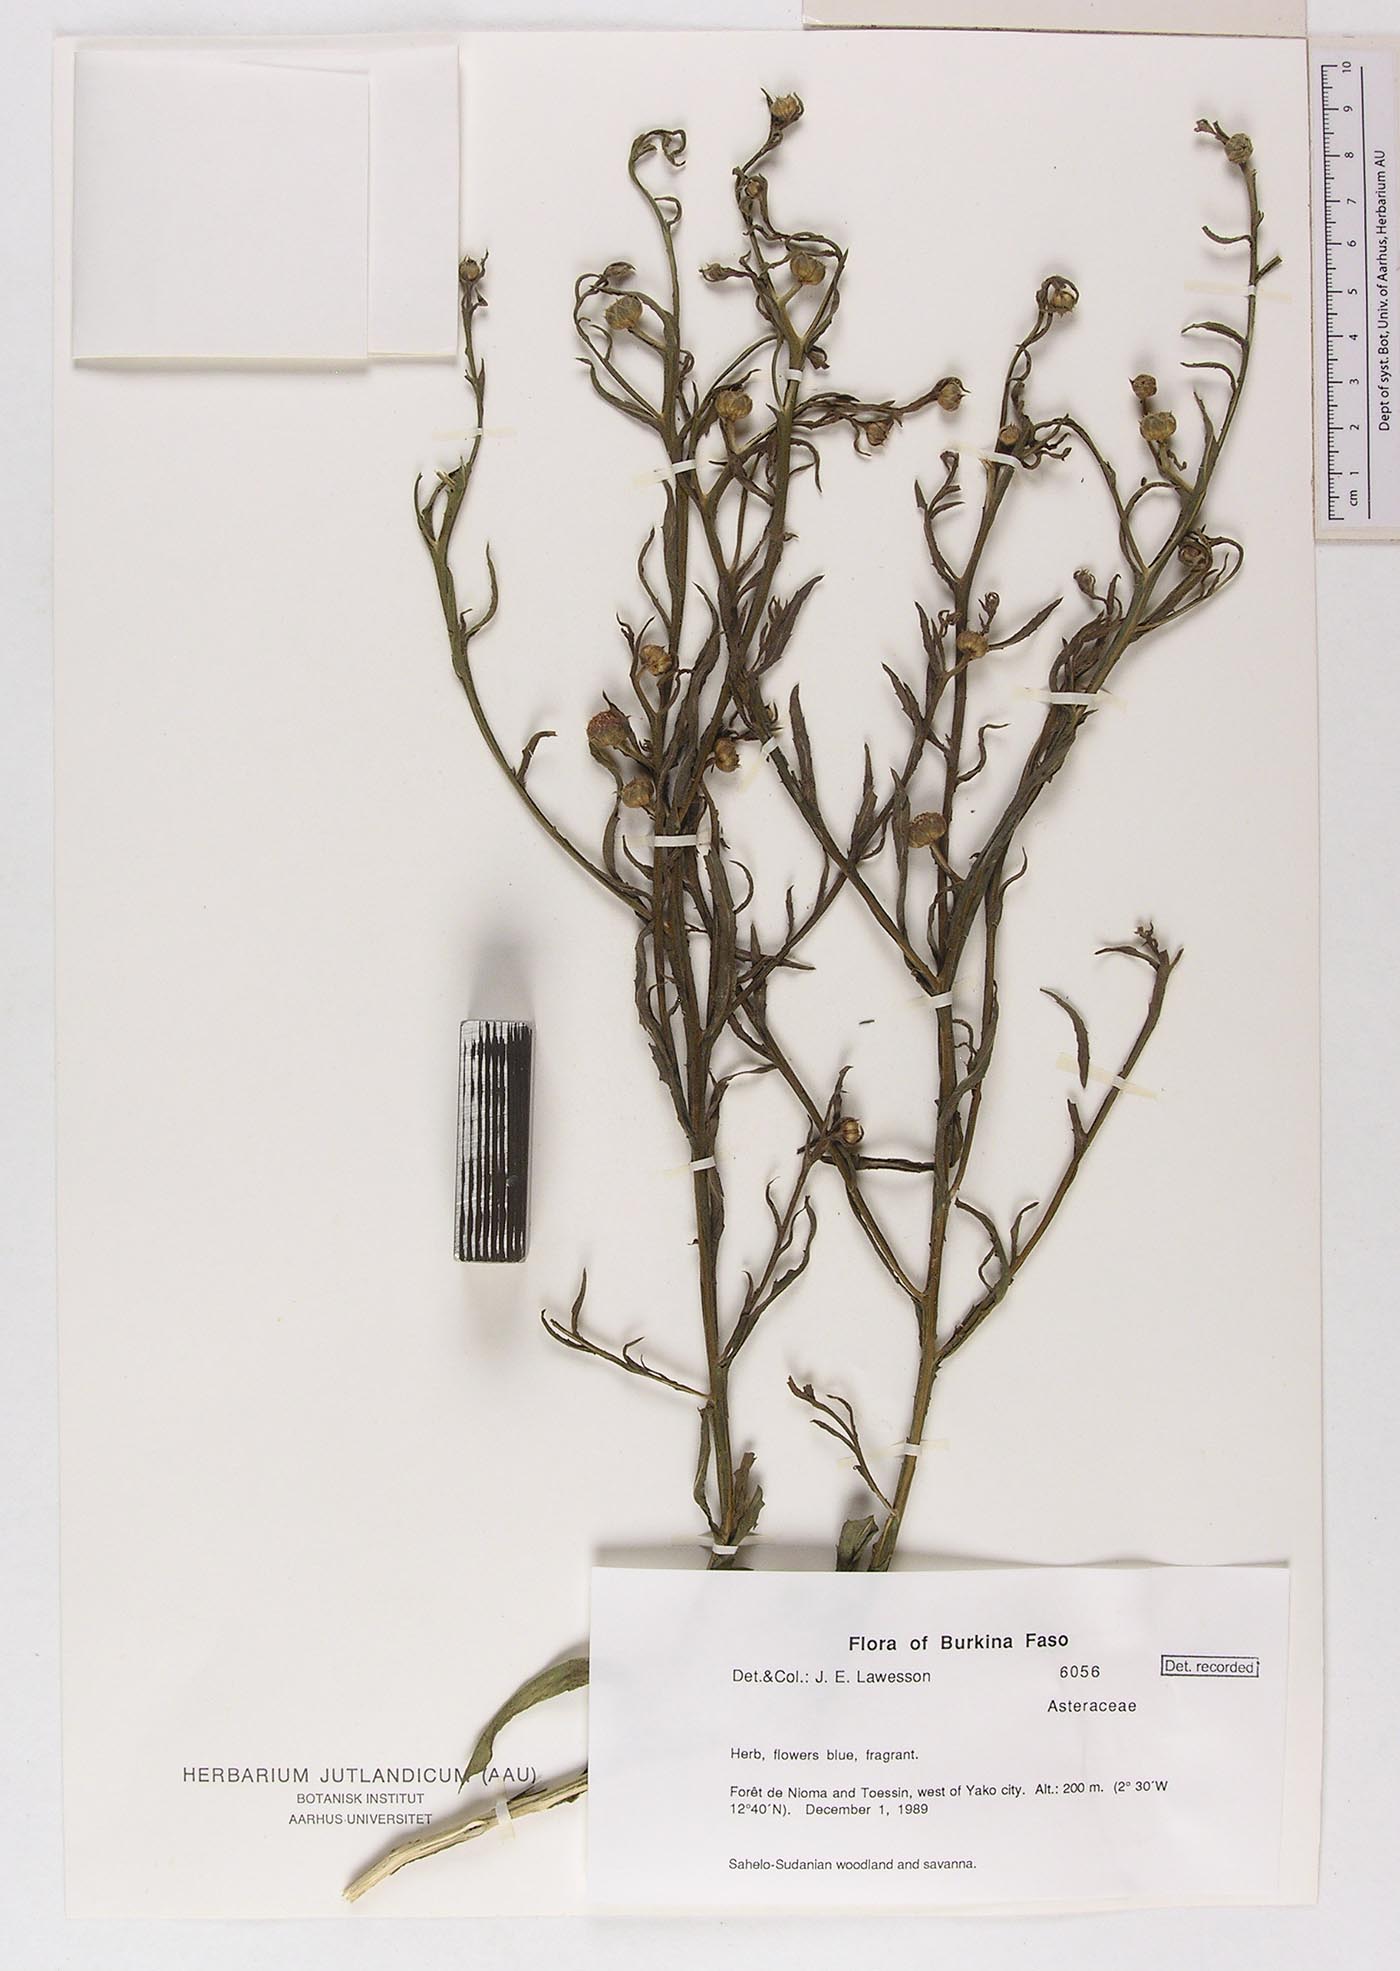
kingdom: Plantae
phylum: Tracheophyta
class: Magnoliopsida
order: Asterales
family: Asteraceae
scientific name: Asteraceae
